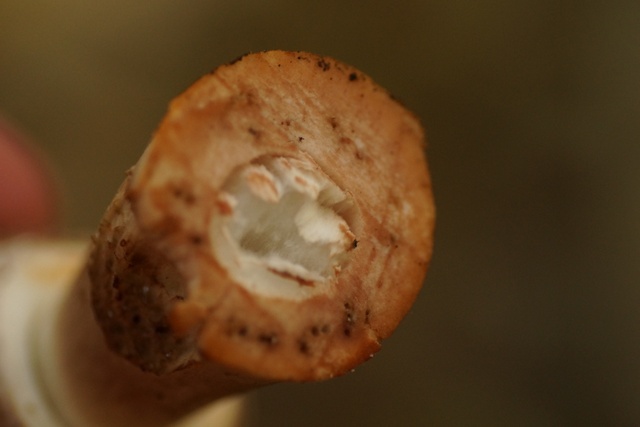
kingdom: Fungi
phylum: Basidiomycota
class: Agaricomycetes
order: Agaricales
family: Agaricaceae
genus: Chlorophyllum
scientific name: Chlorophyllum rhacodes
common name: ægte rabarberhat
